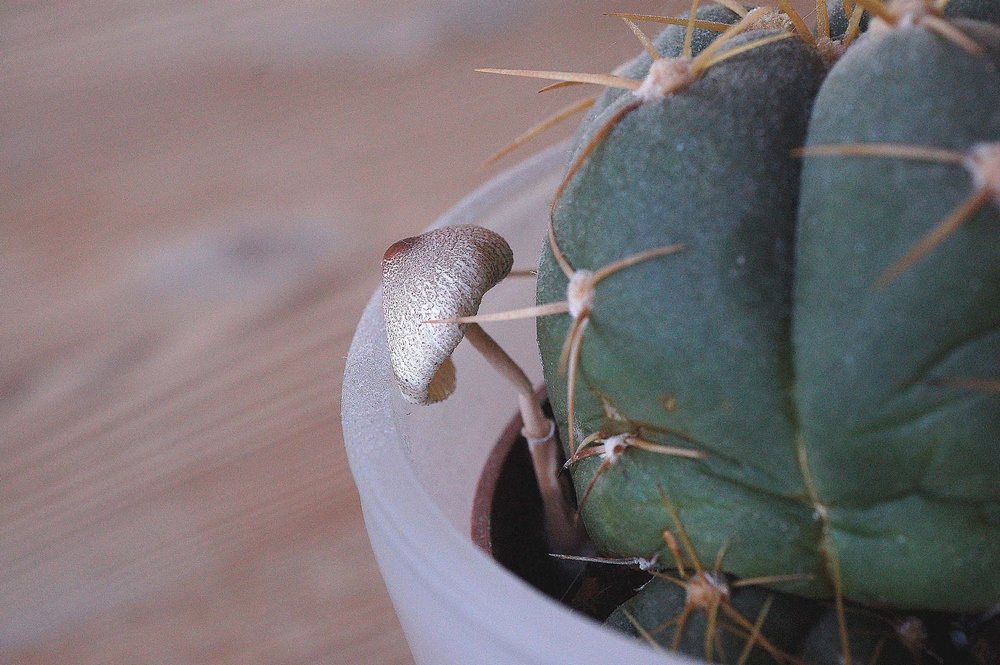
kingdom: Fungi
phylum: Basidiomycota
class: Agaricomycetes
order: Agaricales
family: Agaricaceae
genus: Leucocoprinus
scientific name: Leucocoprinus ianthinus
